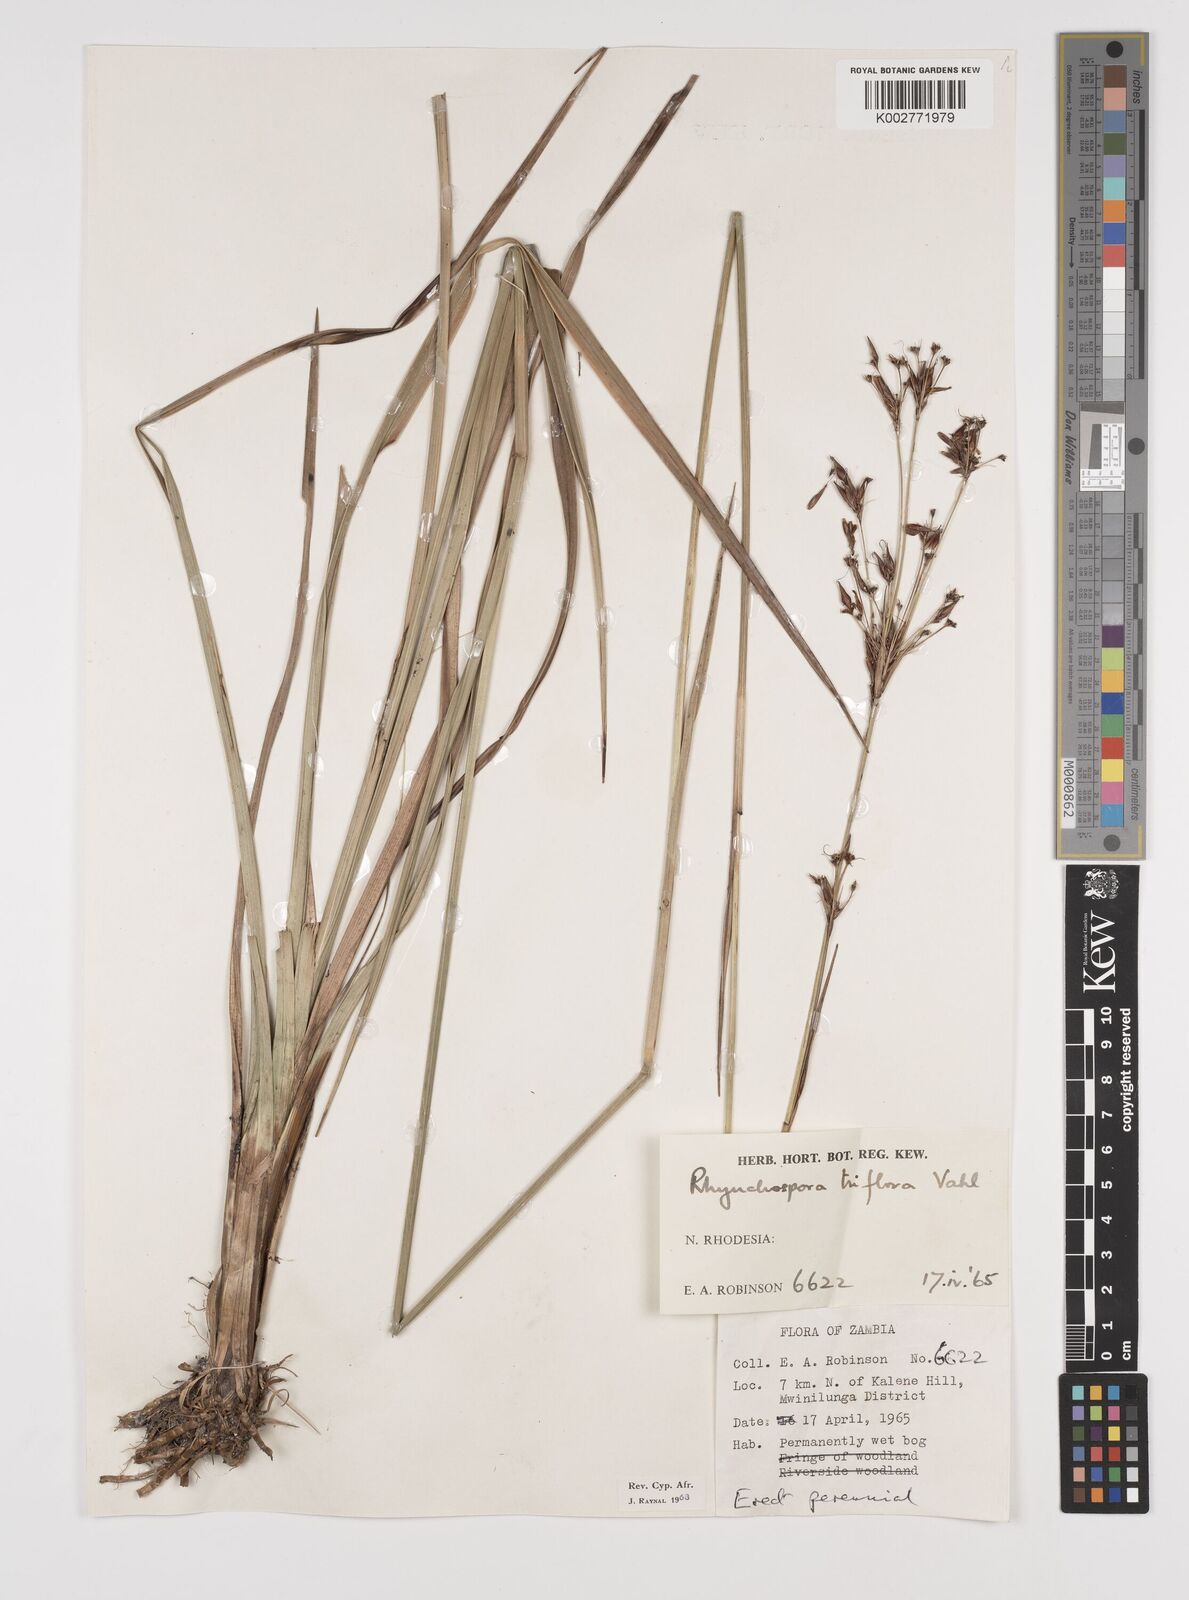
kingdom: Plantae
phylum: Tracheophyta
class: Liliopsida
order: Poales
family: Cyperaceae
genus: Rhynchospora
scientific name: Rhynchospora triflora
